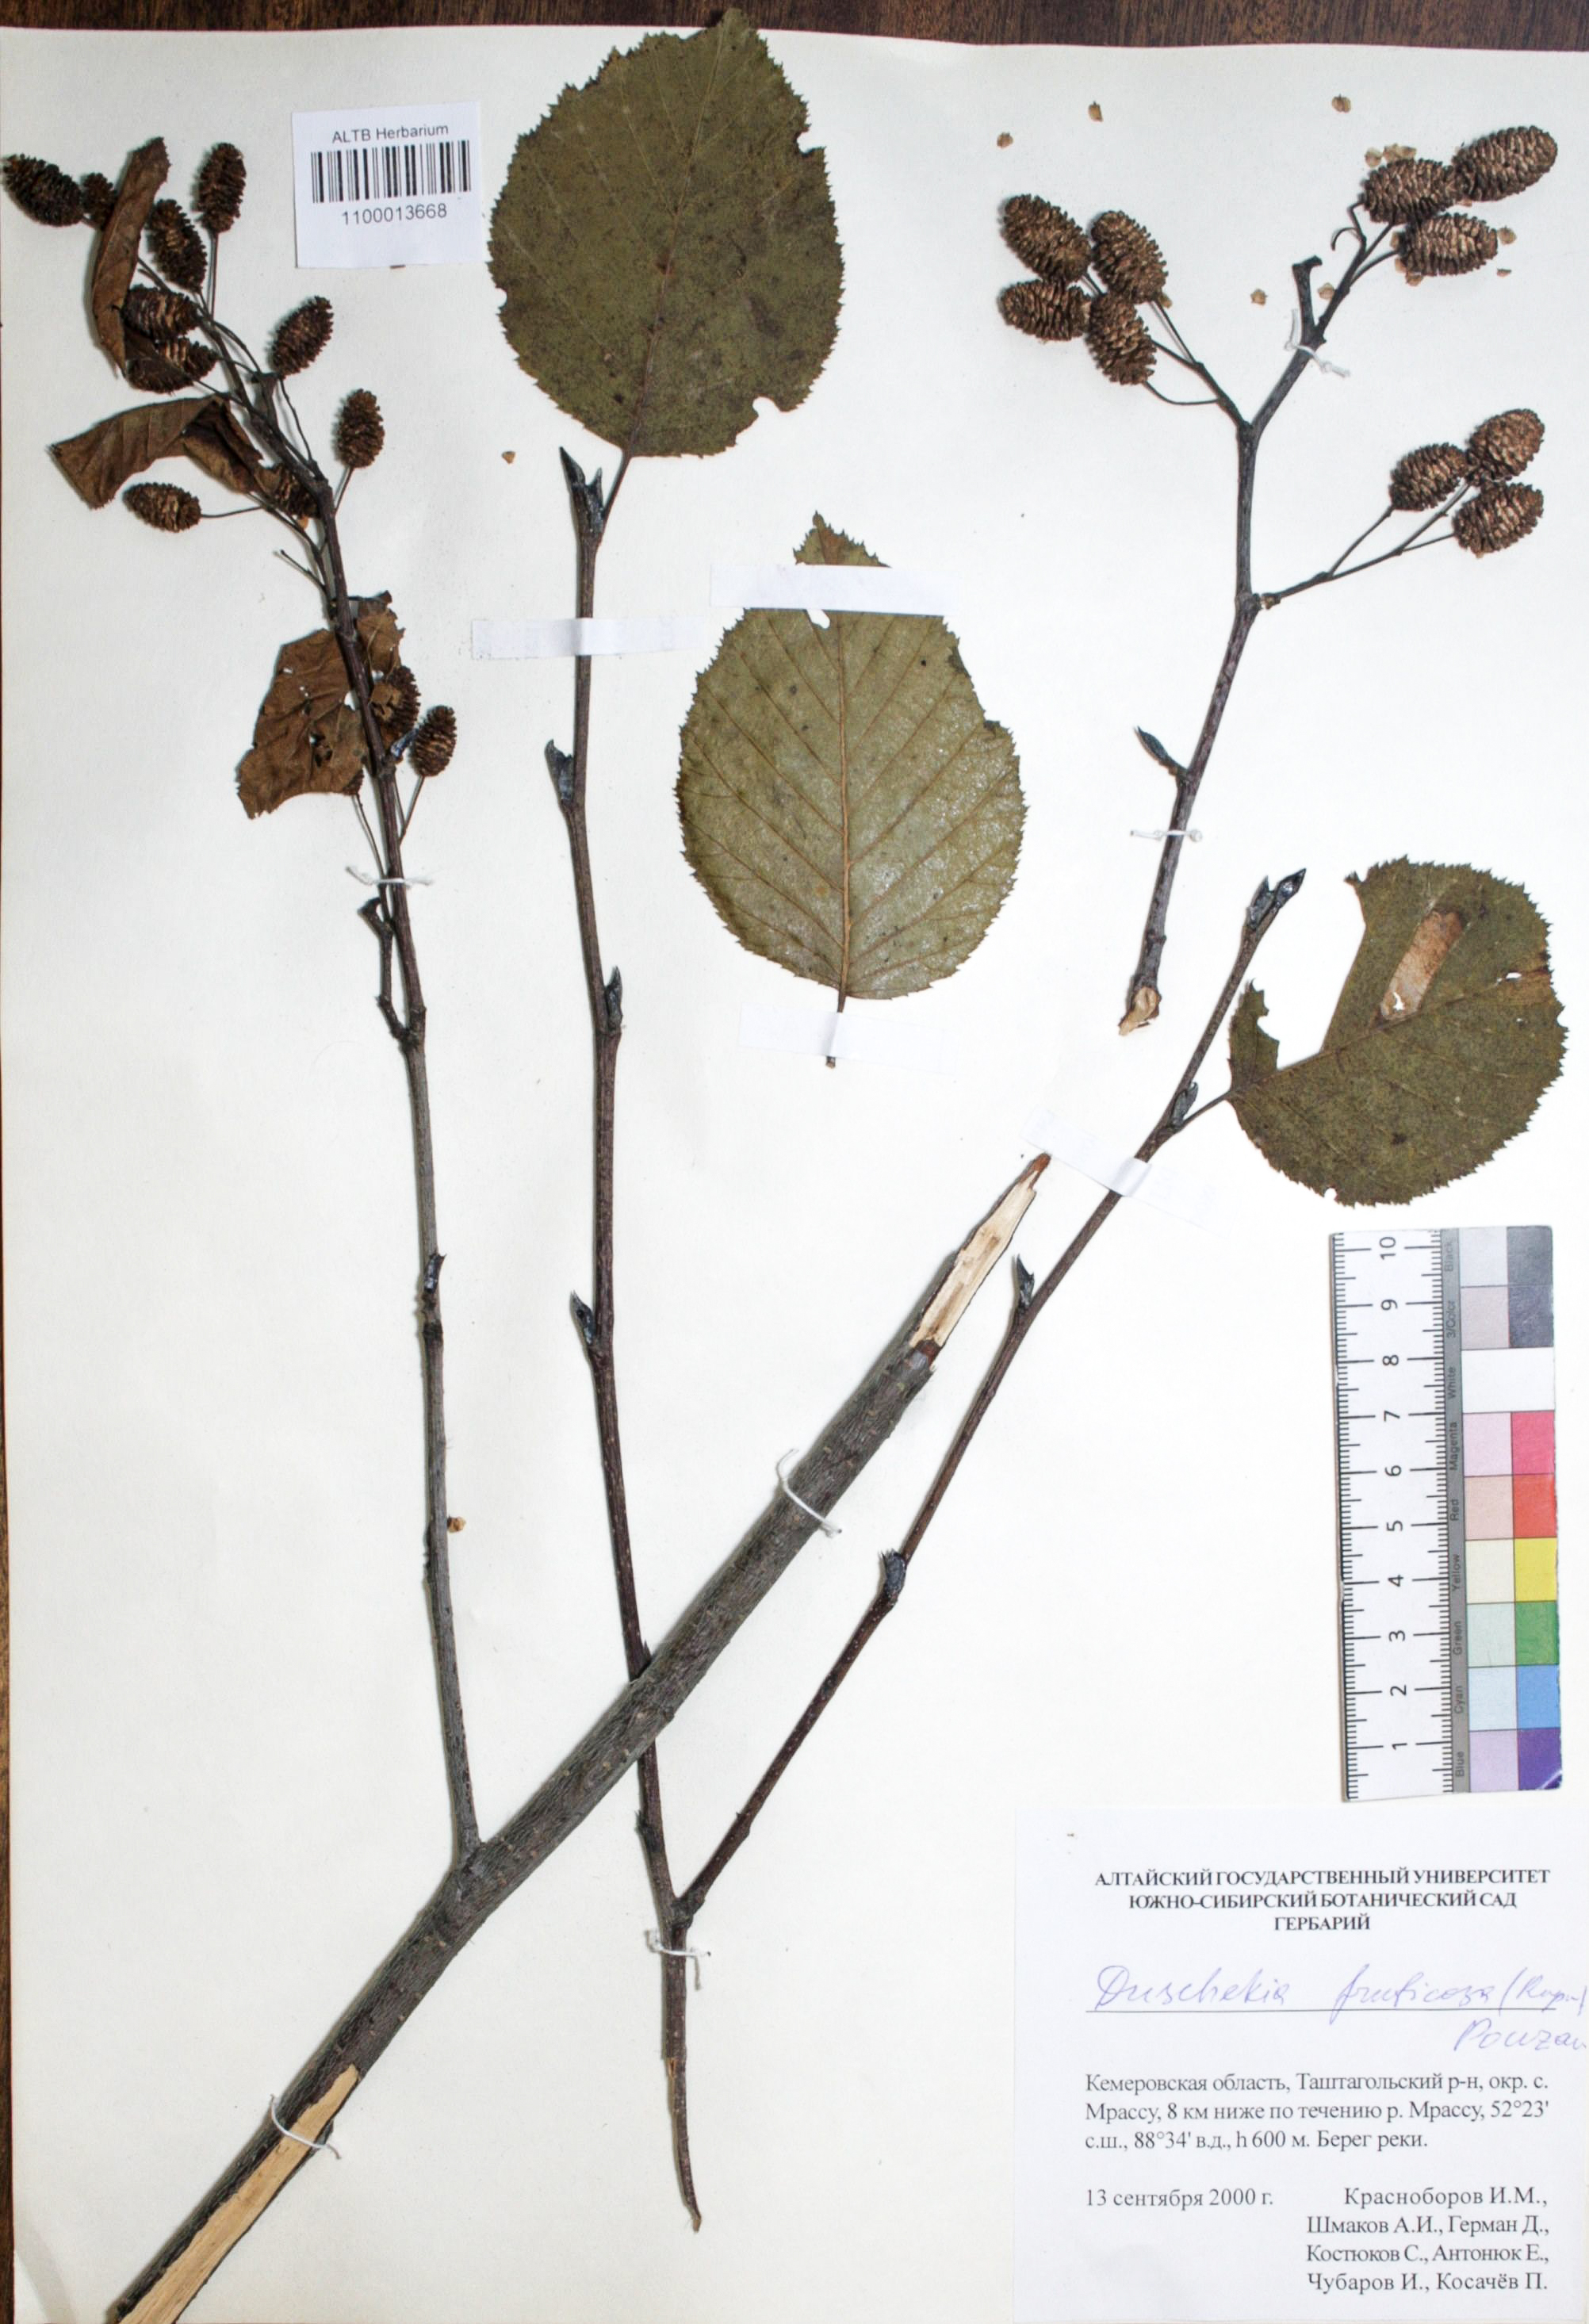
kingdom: Plantae
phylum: Tracheophyta
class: Magnoliopsida
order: Fagales
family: Betulaceae
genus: Alnus
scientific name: Alnus alnobetula
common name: Green alder
